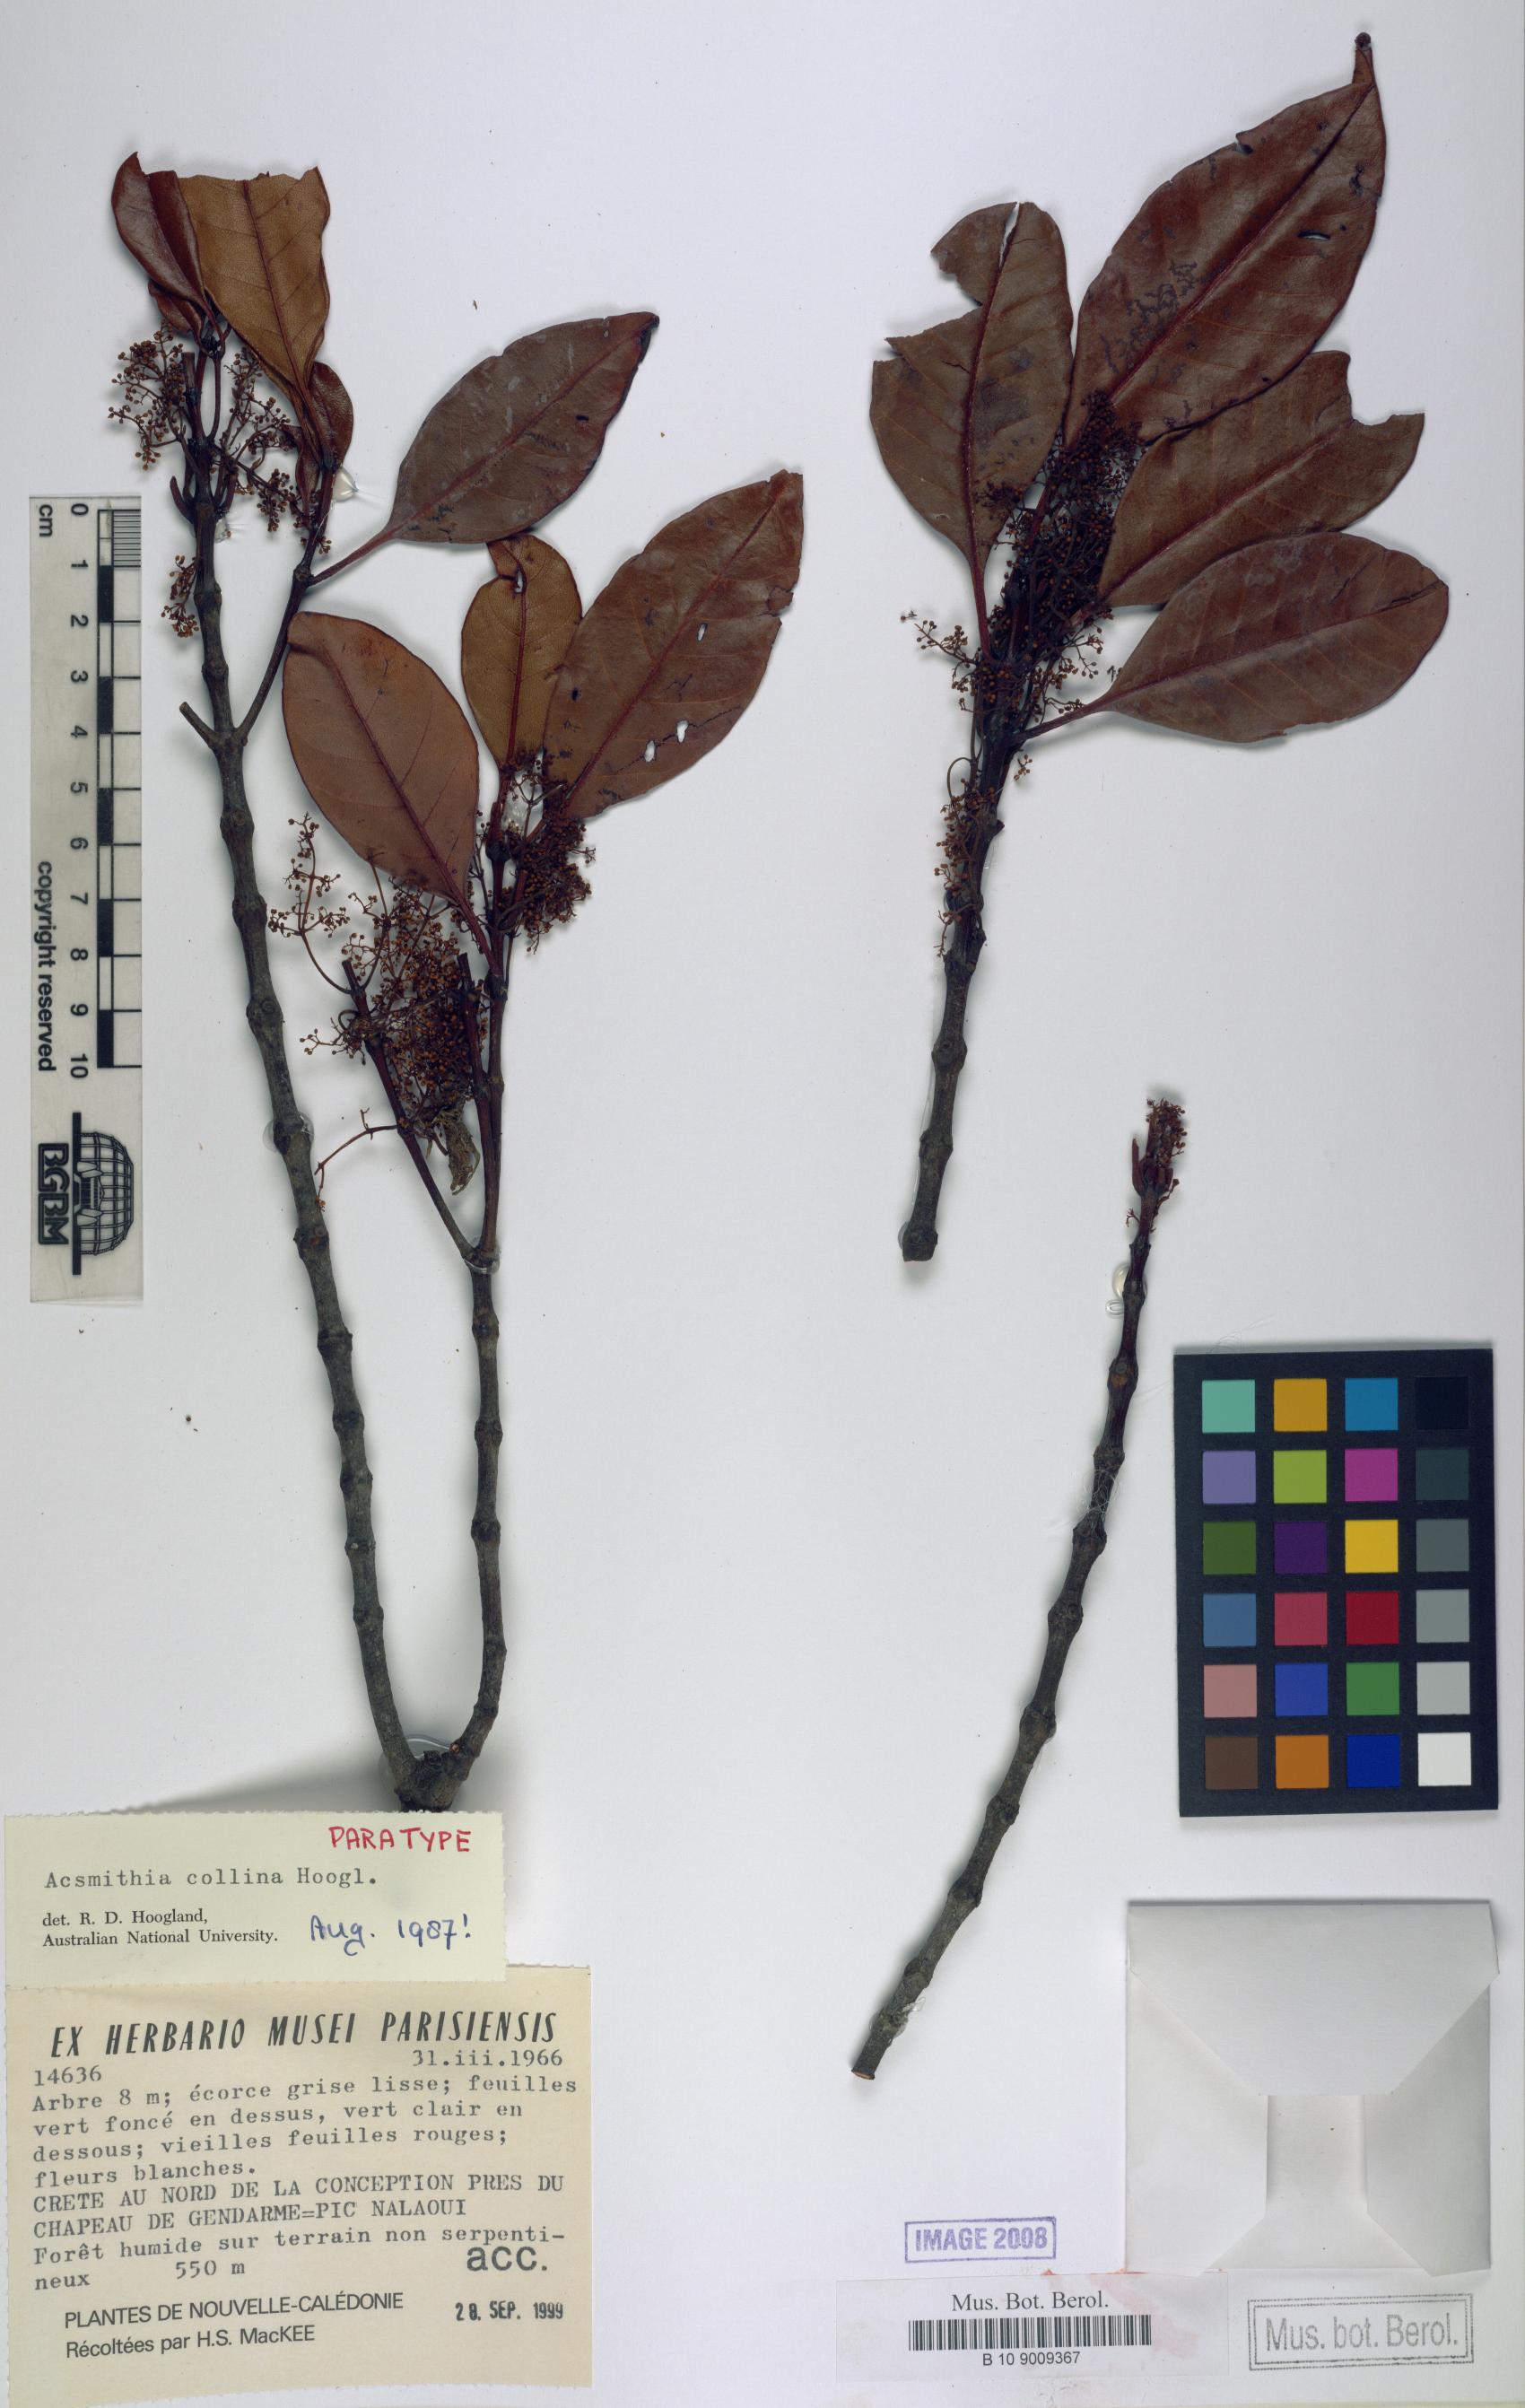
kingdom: Plantae
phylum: Tracheophyta
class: Magnoliopsida
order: Oxalidales
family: Cunoniaceae
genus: Spiraeanthemum
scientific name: Spiraeanthemum collinum
